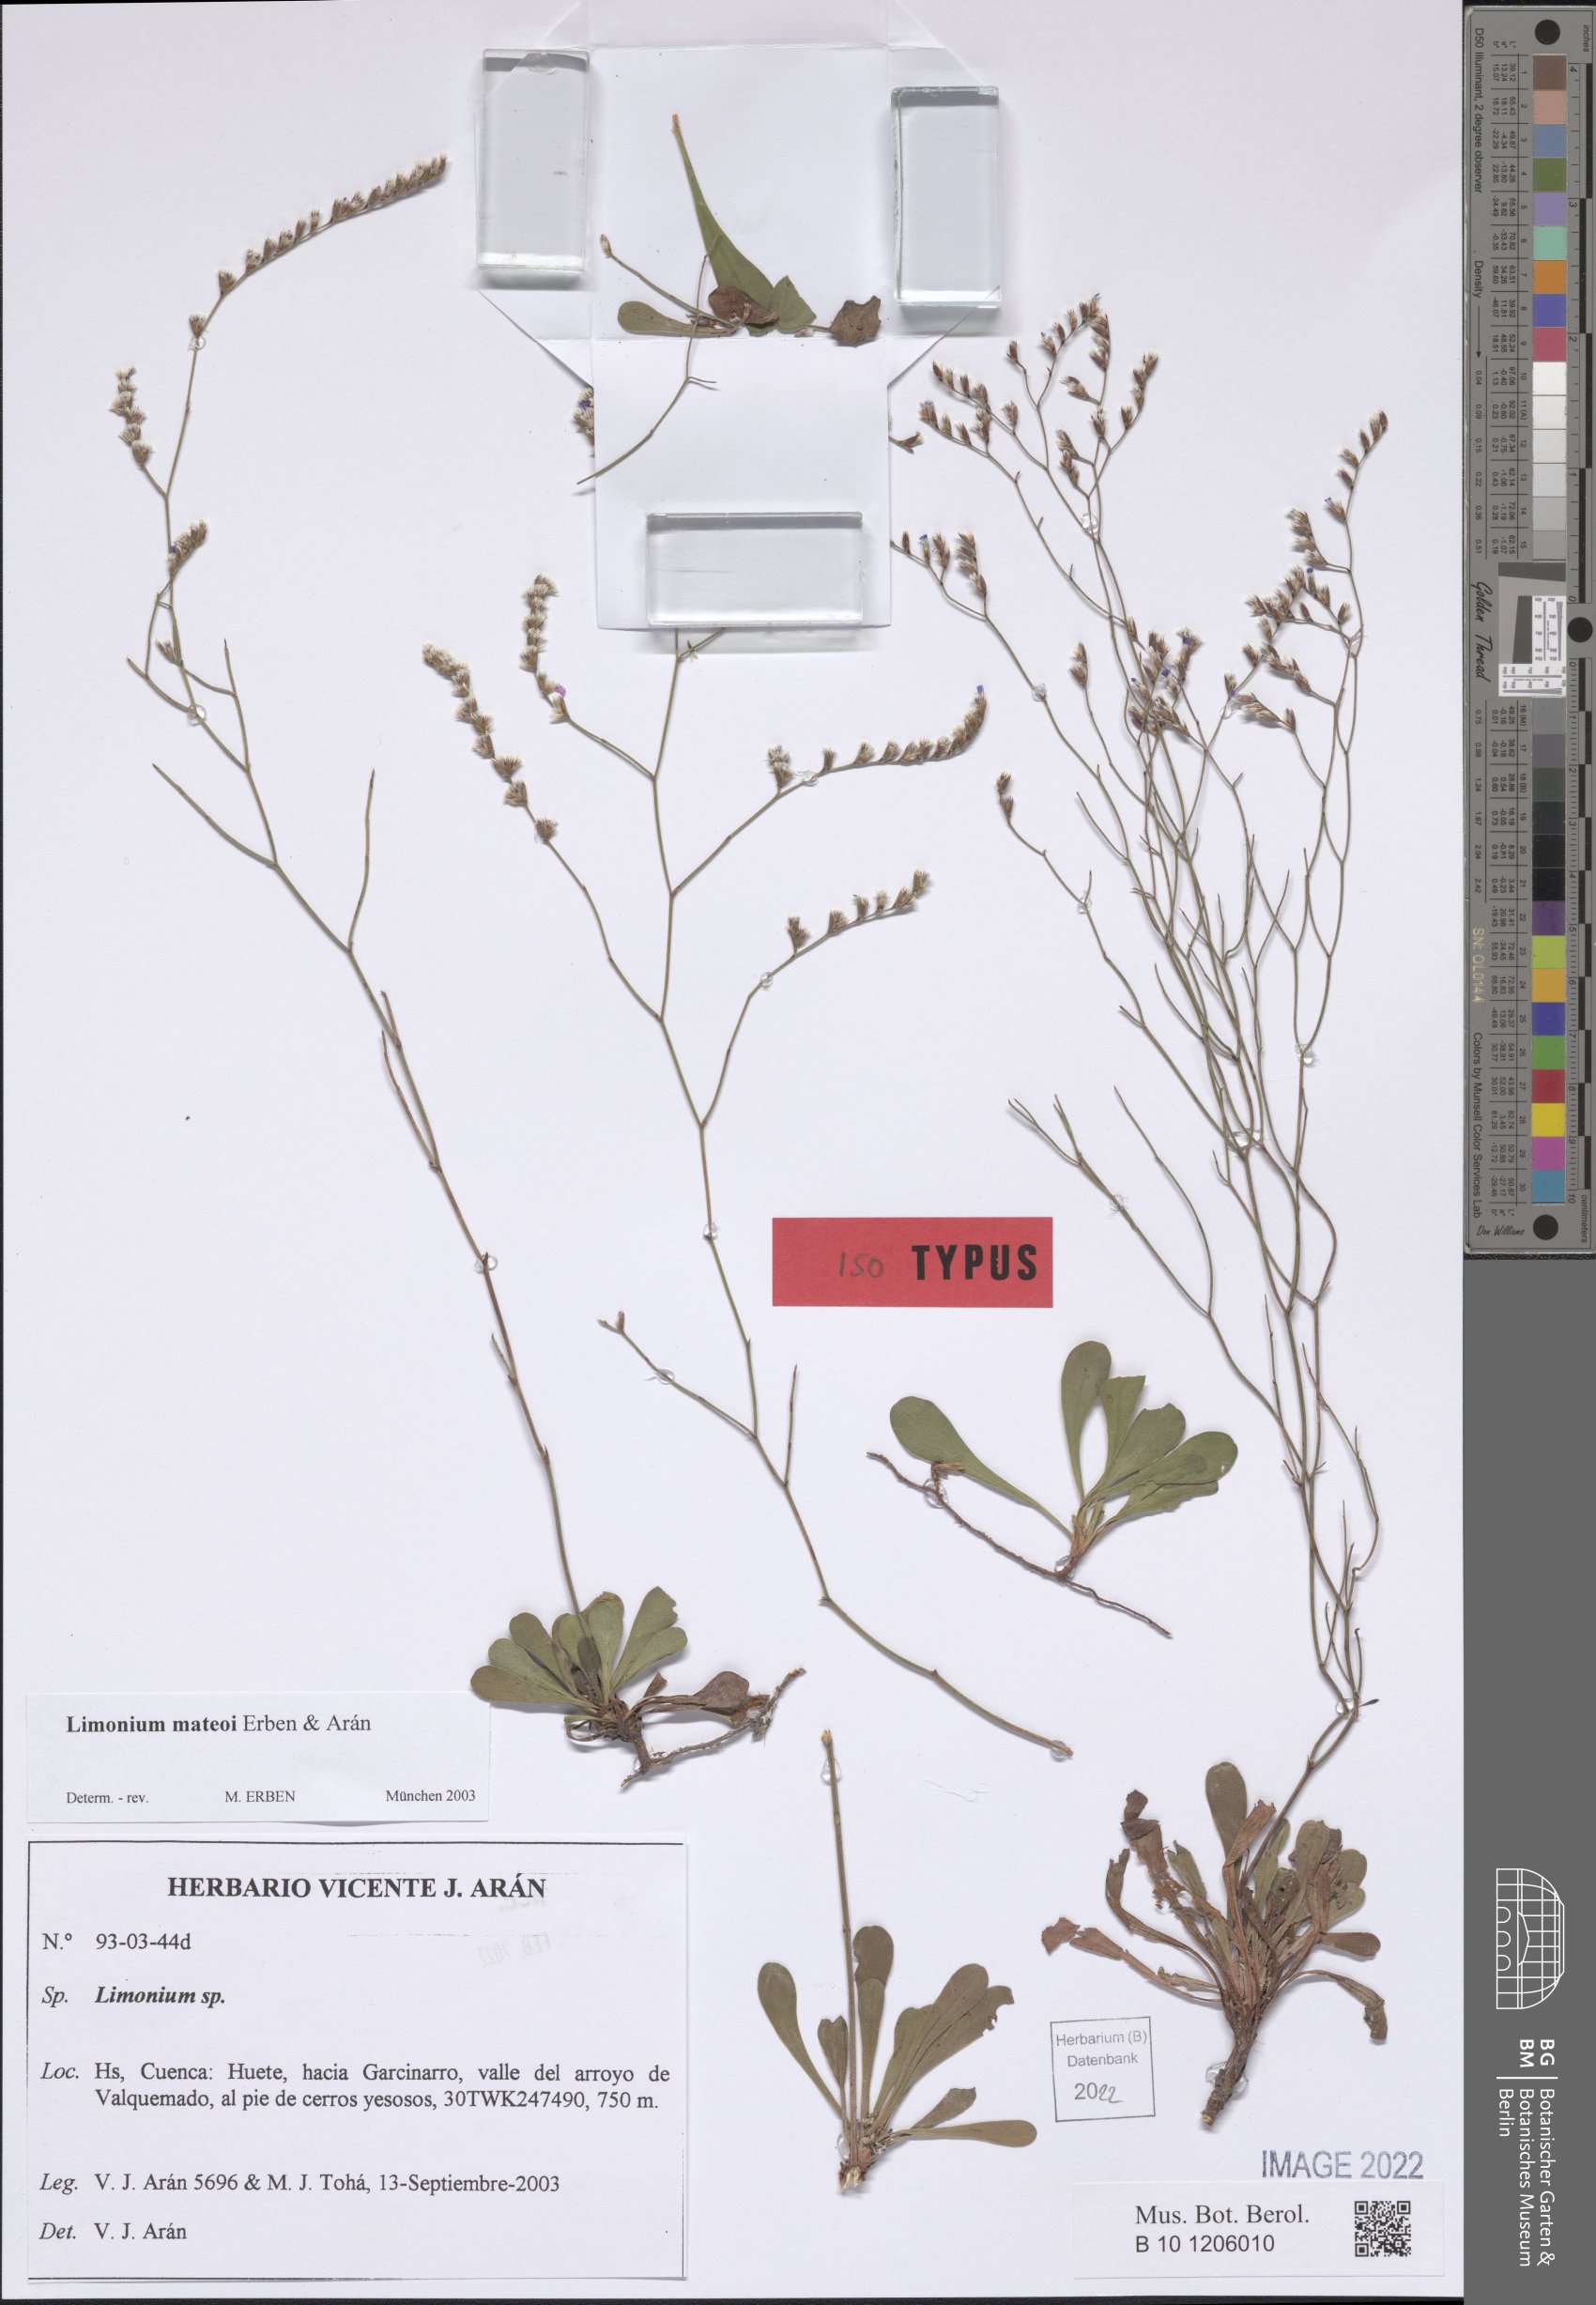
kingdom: Plantae
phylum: Tracheophyta
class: Magnoliopsida
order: Caryophyllales
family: Plumbaginaceae
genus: Limonium
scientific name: Limonium mateoi
